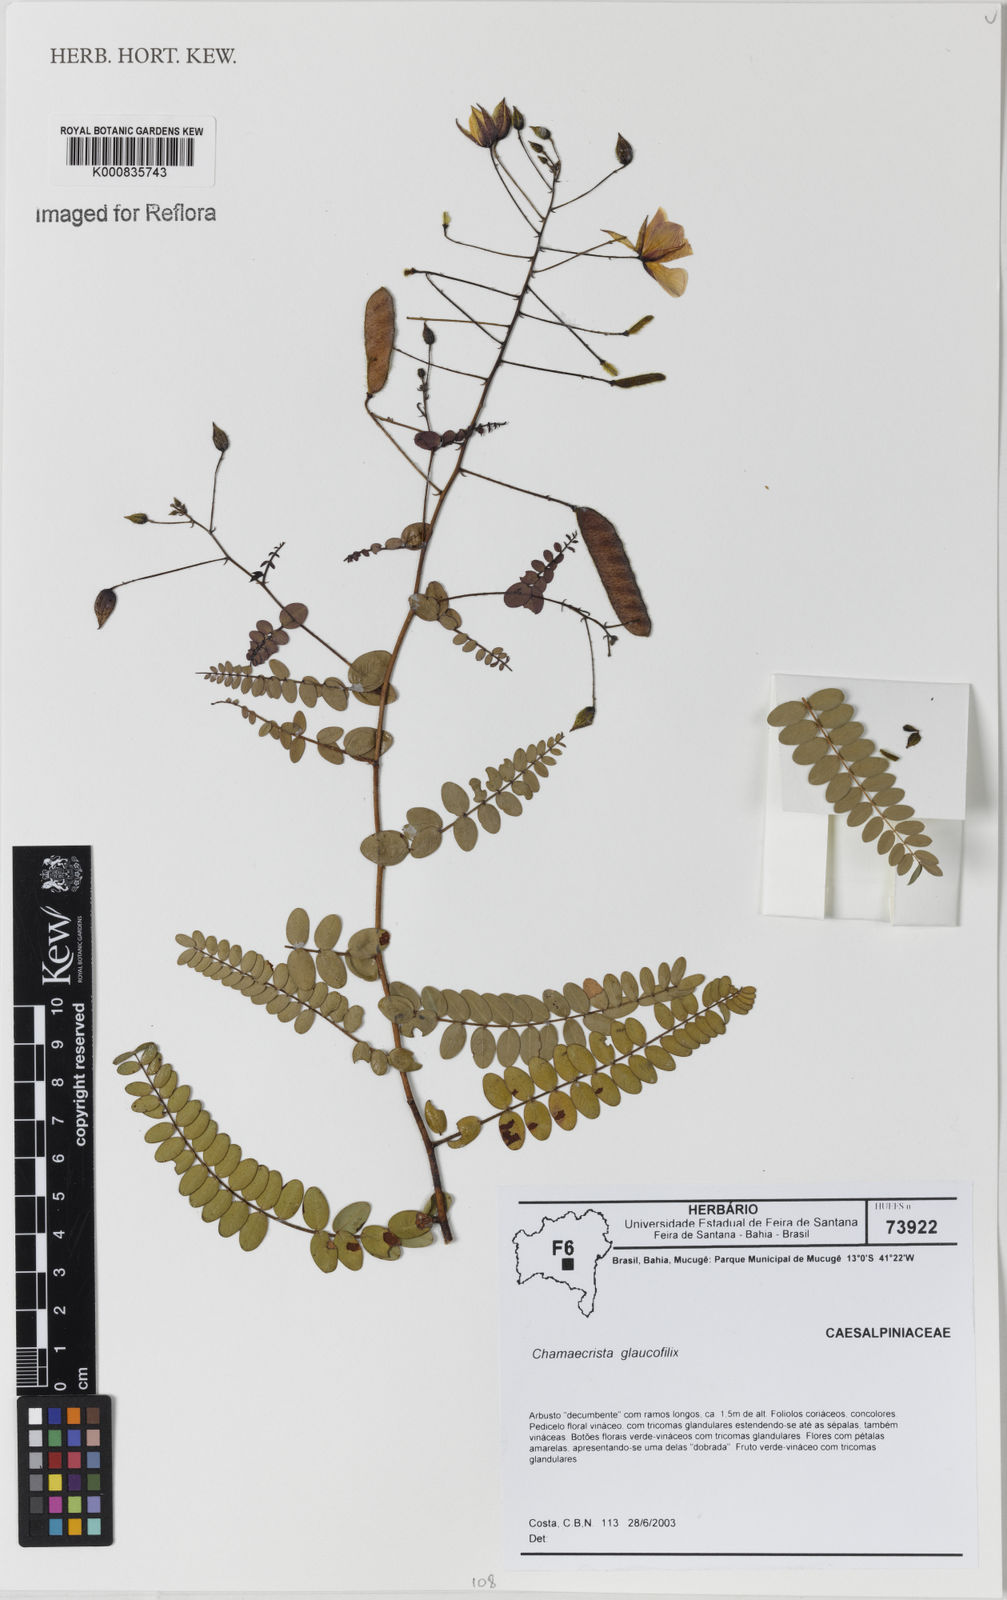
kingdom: Plantae
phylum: Tracheophyta
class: Magnoliopsida
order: Fabales
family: Fabaceae
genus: Chamaecrista
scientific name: Chamaecrista glaucofilix
